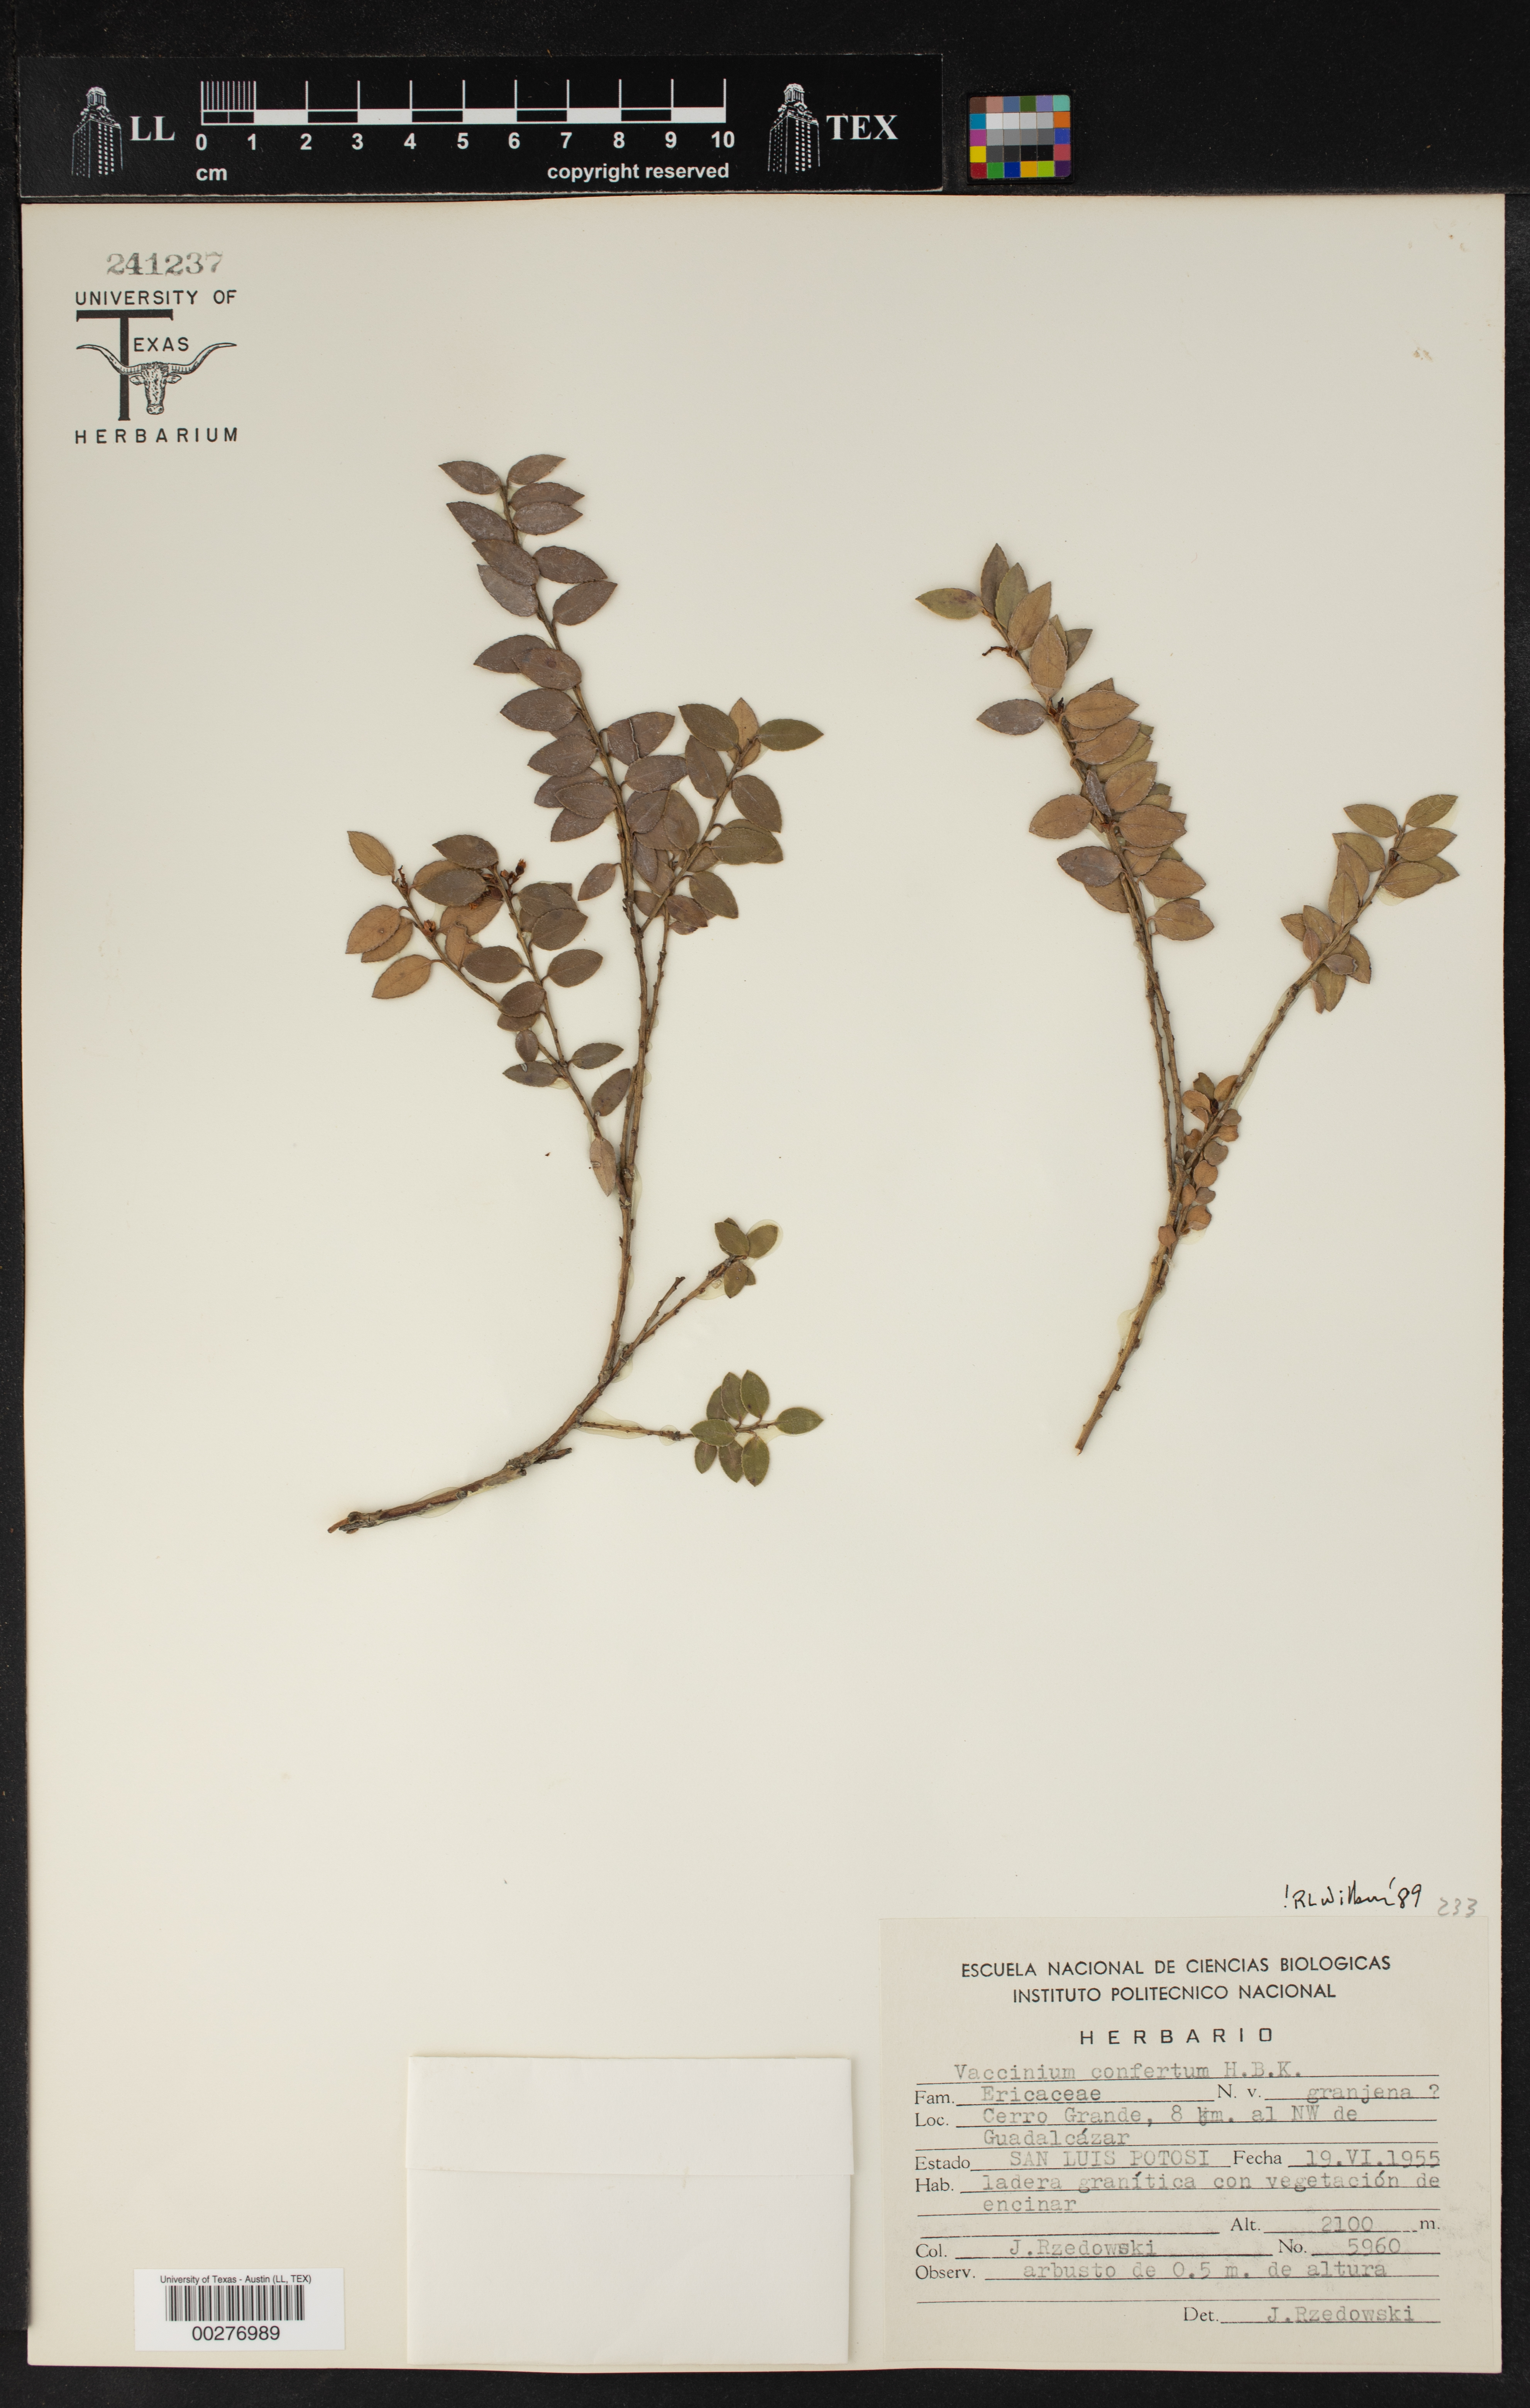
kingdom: Plantae
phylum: Tracheophyta
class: Magnoliopsida
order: Ericales
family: Ericaceae
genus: Vaccinium
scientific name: Vaccinium confertum
